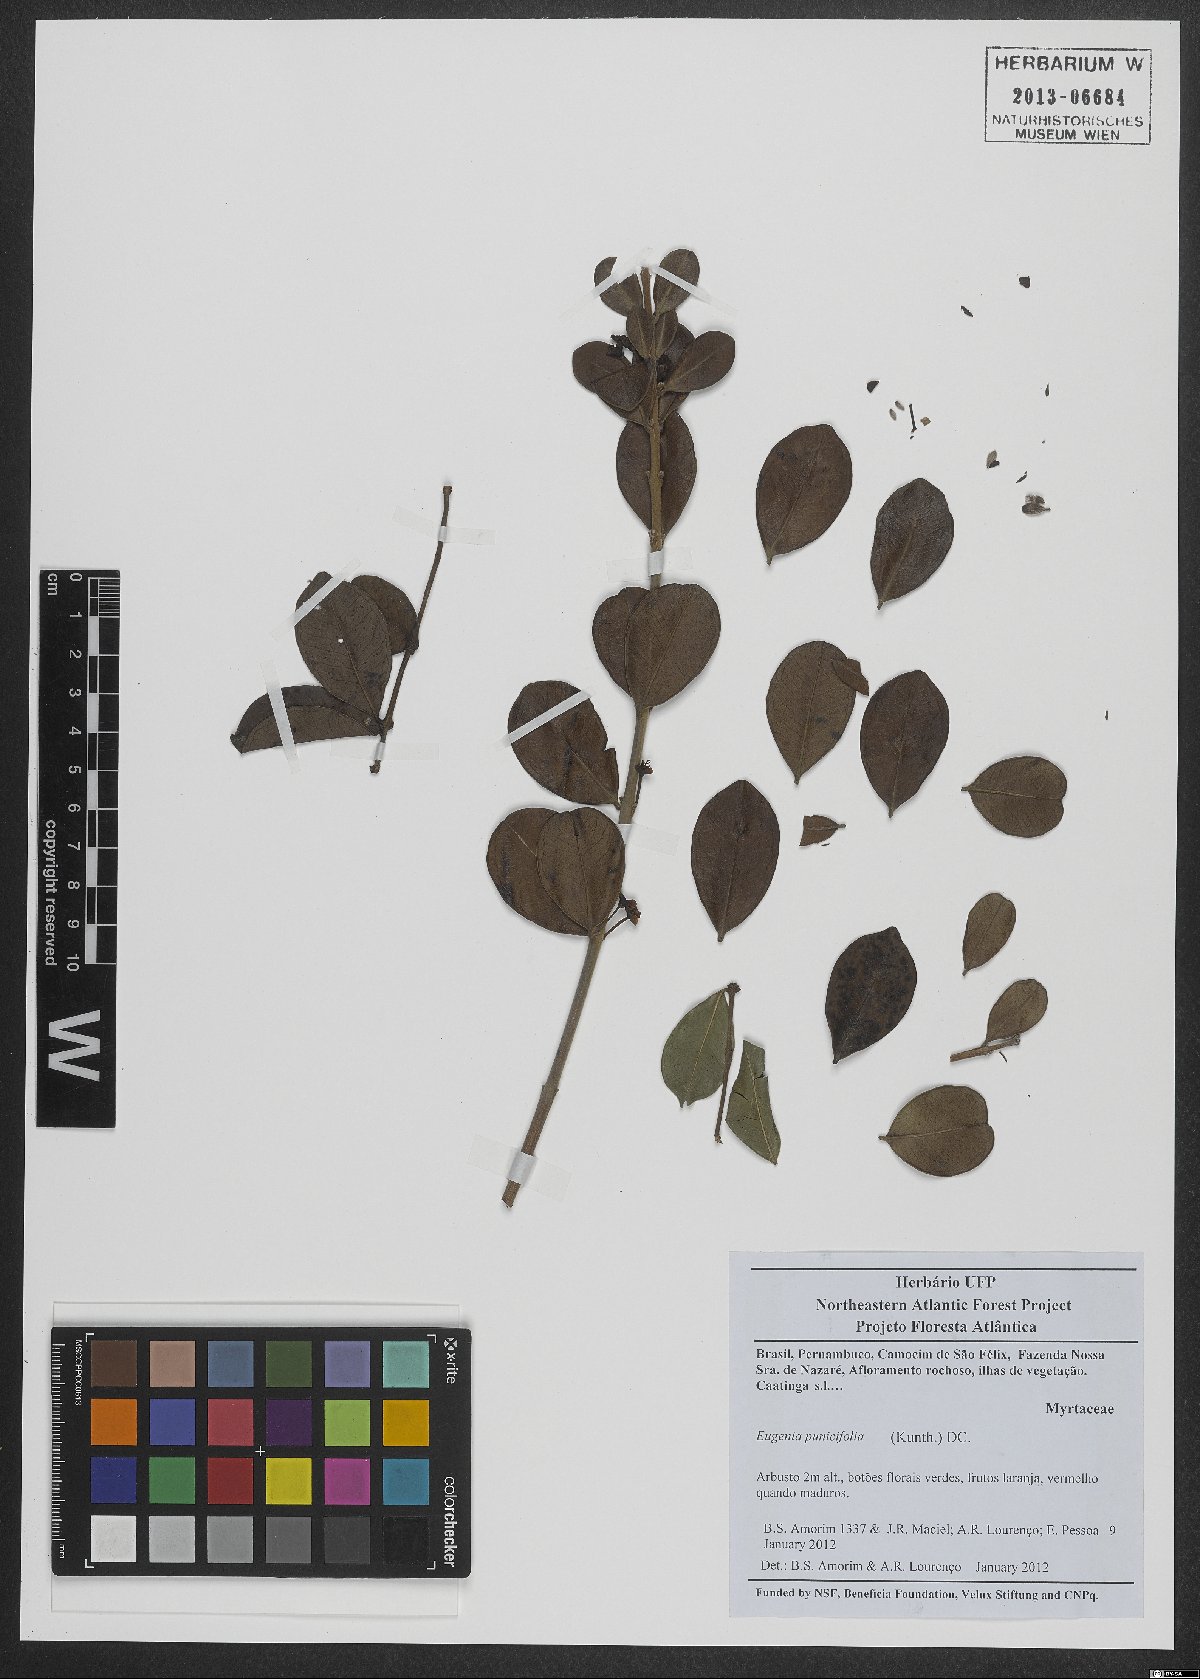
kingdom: Plantae
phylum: Tracheophyta
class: Magnoliopsida
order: Myrtales
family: Myrtaceae
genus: Eugenia
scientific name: Eugenia punicifolia
